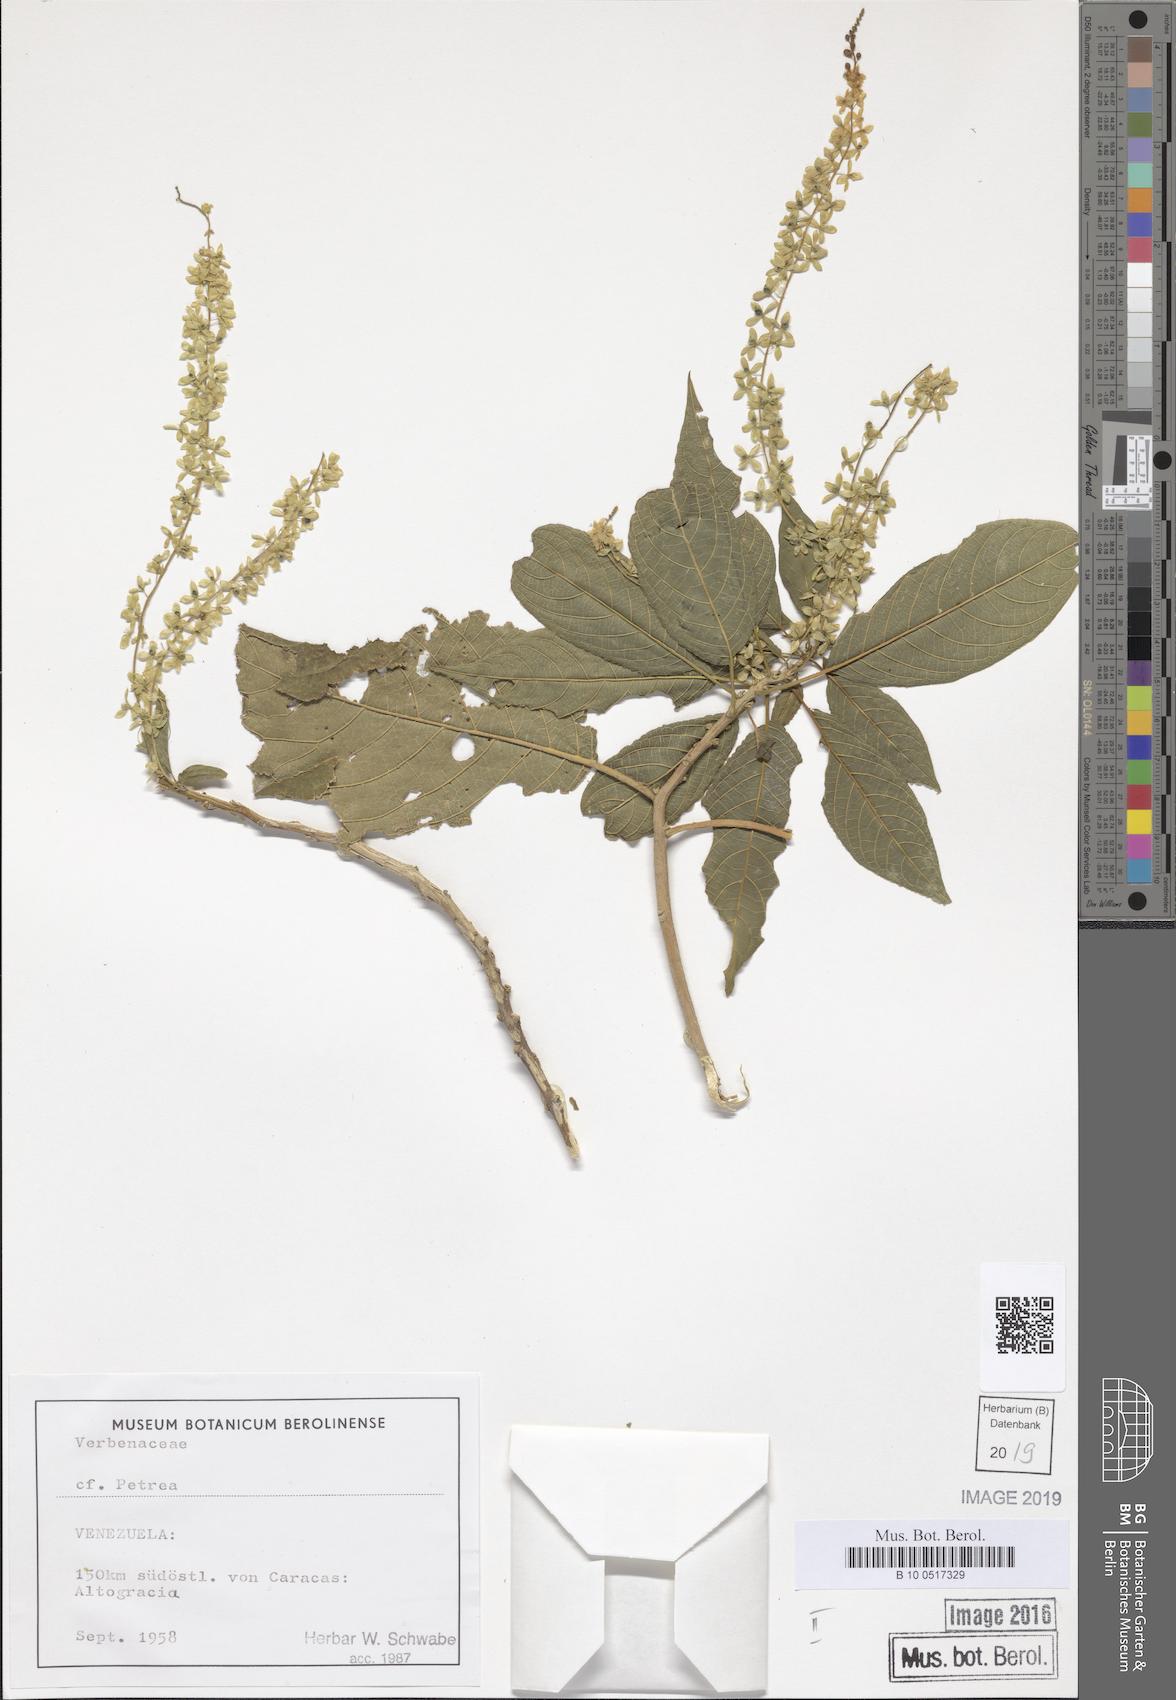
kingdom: Plantae
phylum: Tracheophyta
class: Magnoliopsida
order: Caryophyllales
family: Phytolaccaceae
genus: Ledenbergia
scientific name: Ledenbergia
